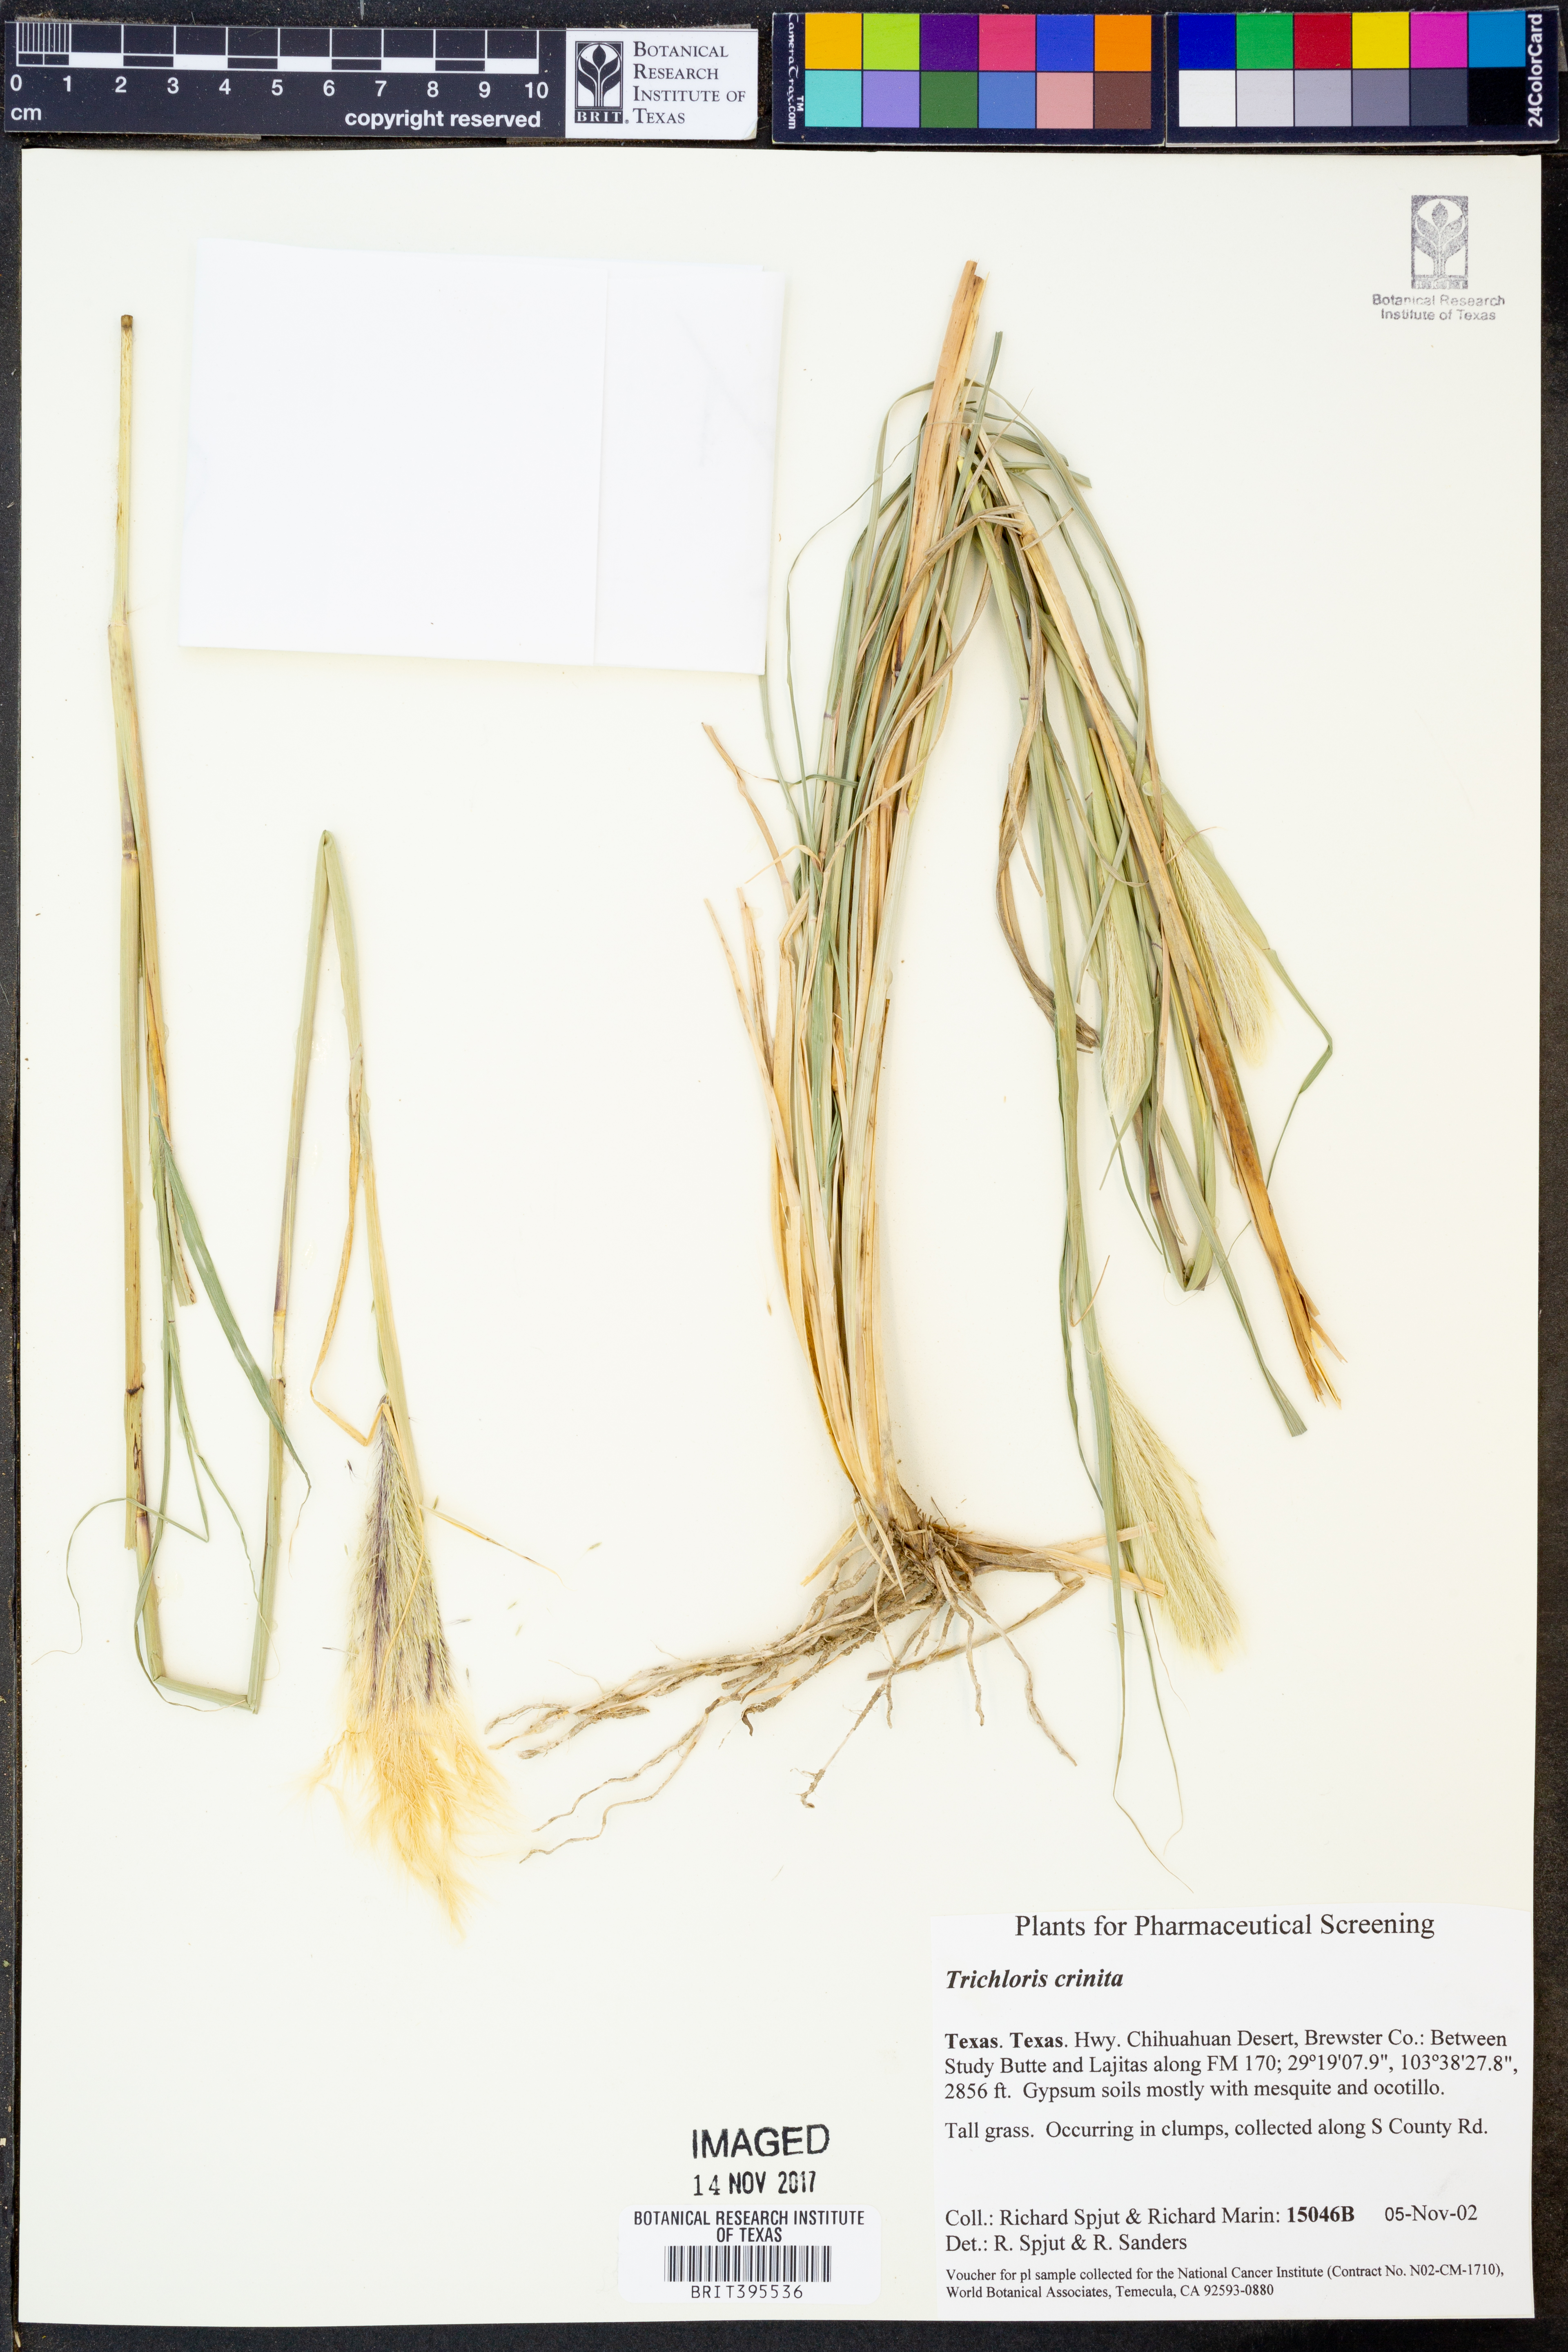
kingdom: Plantae
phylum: Tracheophyta
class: Liliopsida
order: Poales
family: Poaceae
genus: Leptochloa
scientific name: Leptochloa crinita
